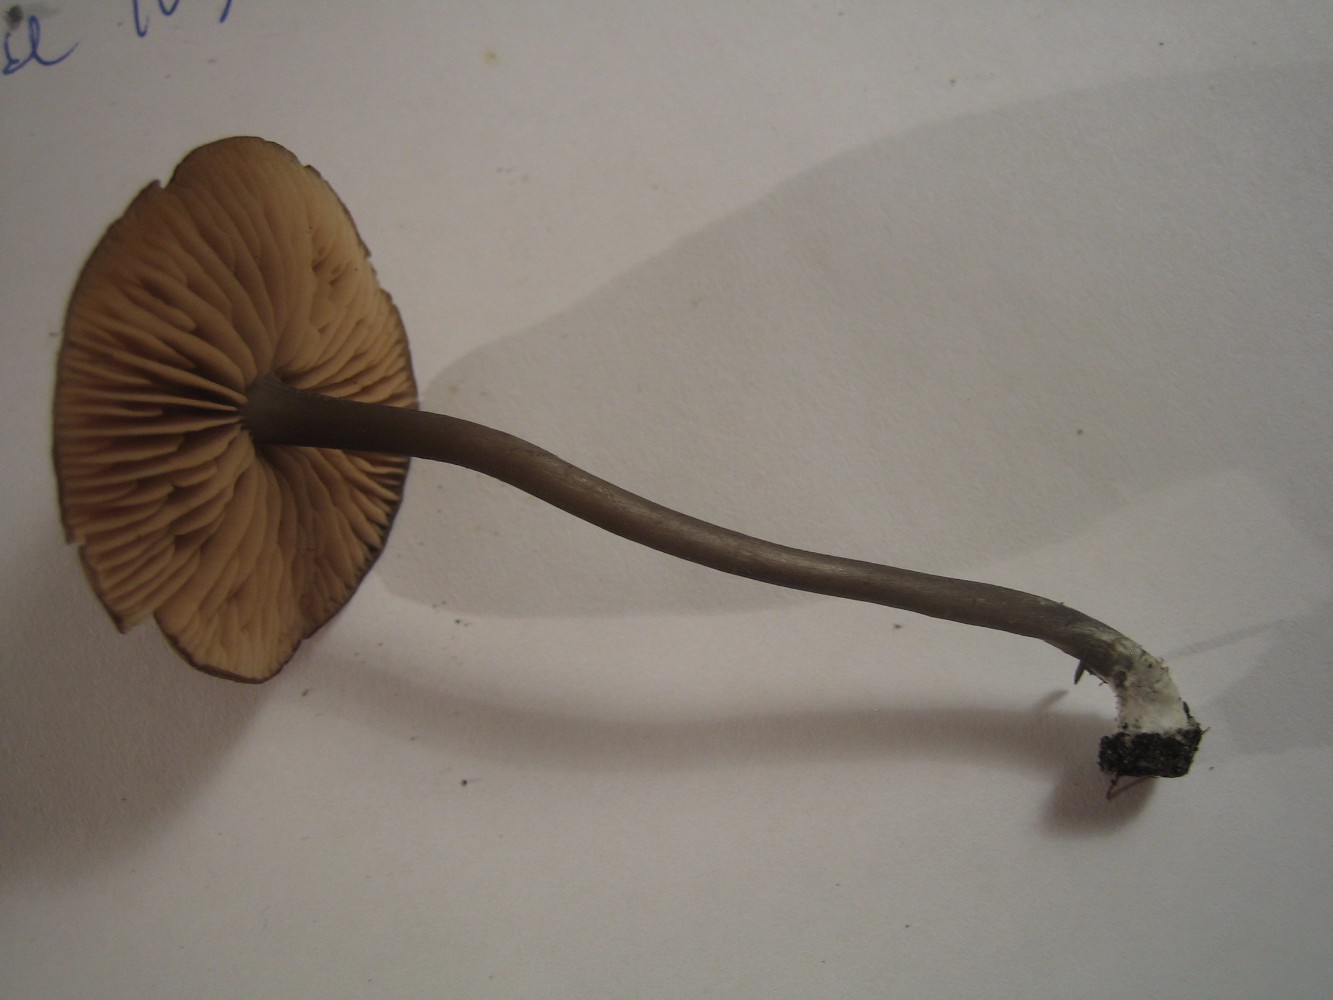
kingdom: Fungi
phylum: Basidiomycota
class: Agaricomycetes
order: Agaricales
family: Entolomataceae
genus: Entoloma
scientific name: Entoloma
